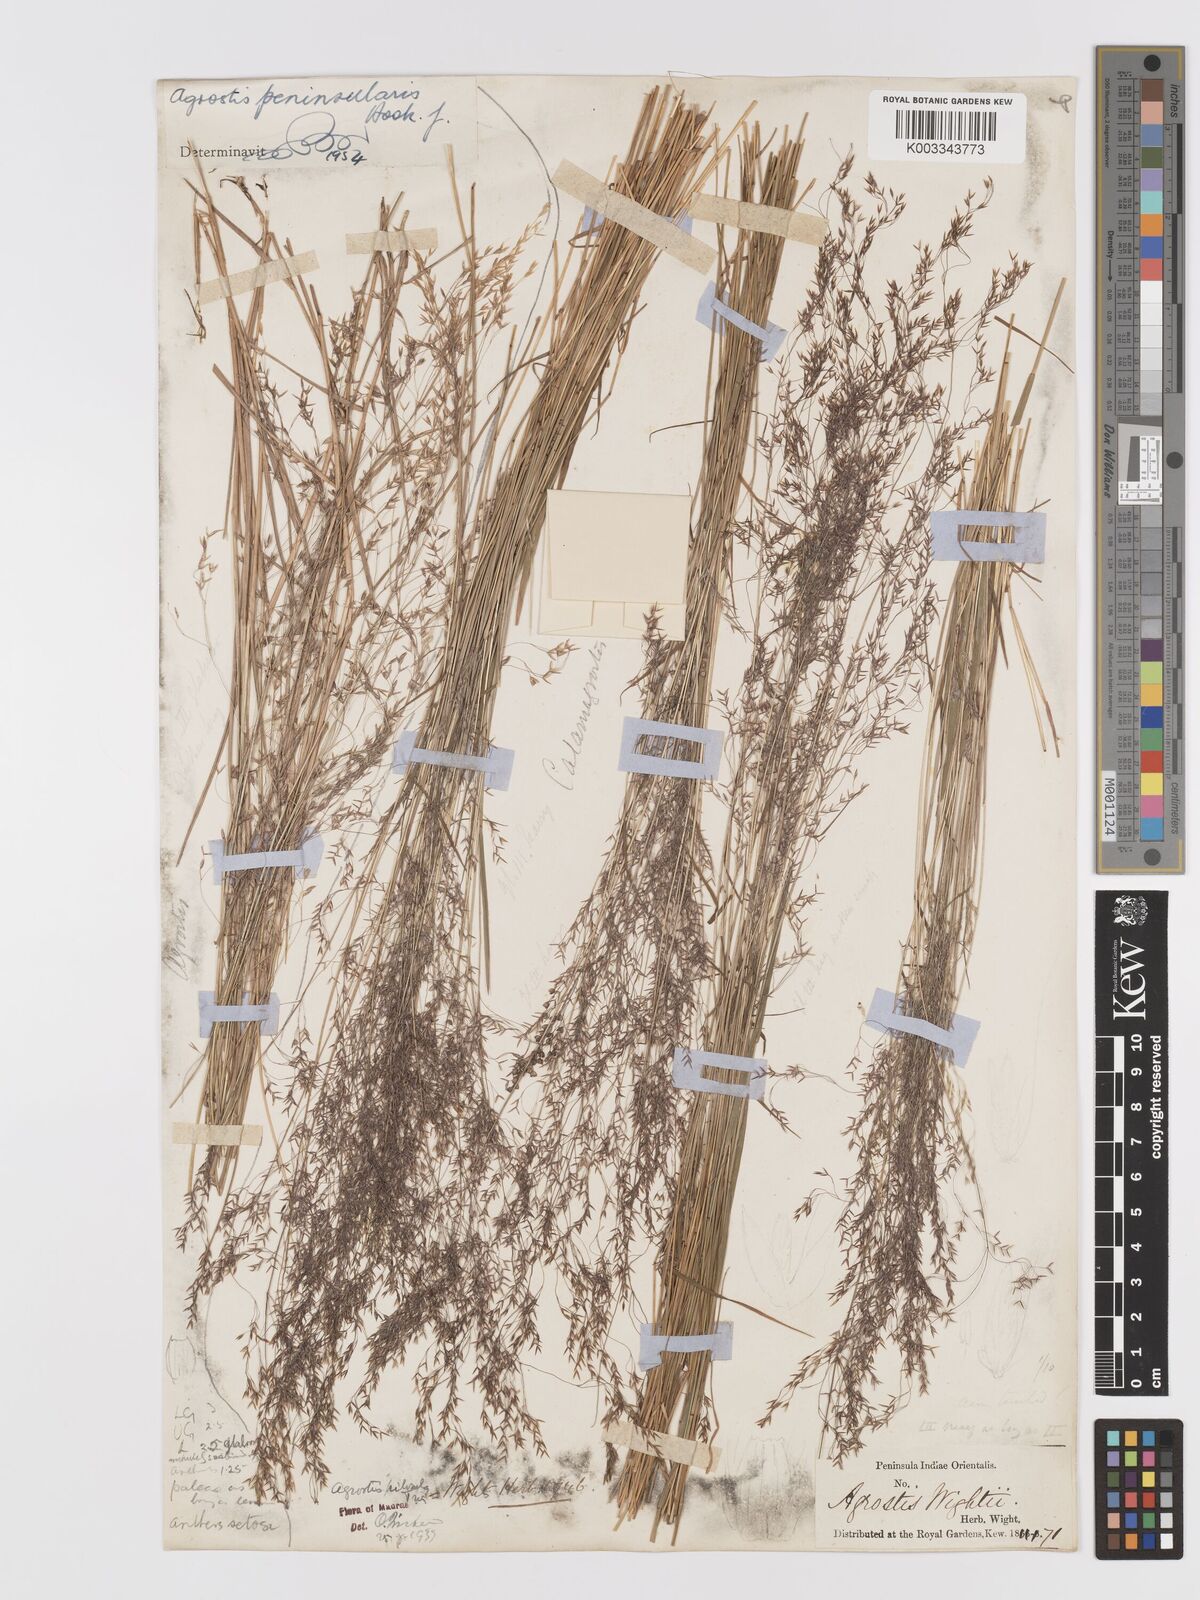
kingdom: Plantae
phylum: Tracheophyta
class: Liliopsida
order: Poales
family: Poaceae
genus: Agrostis
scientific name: Agrostis pilosula
